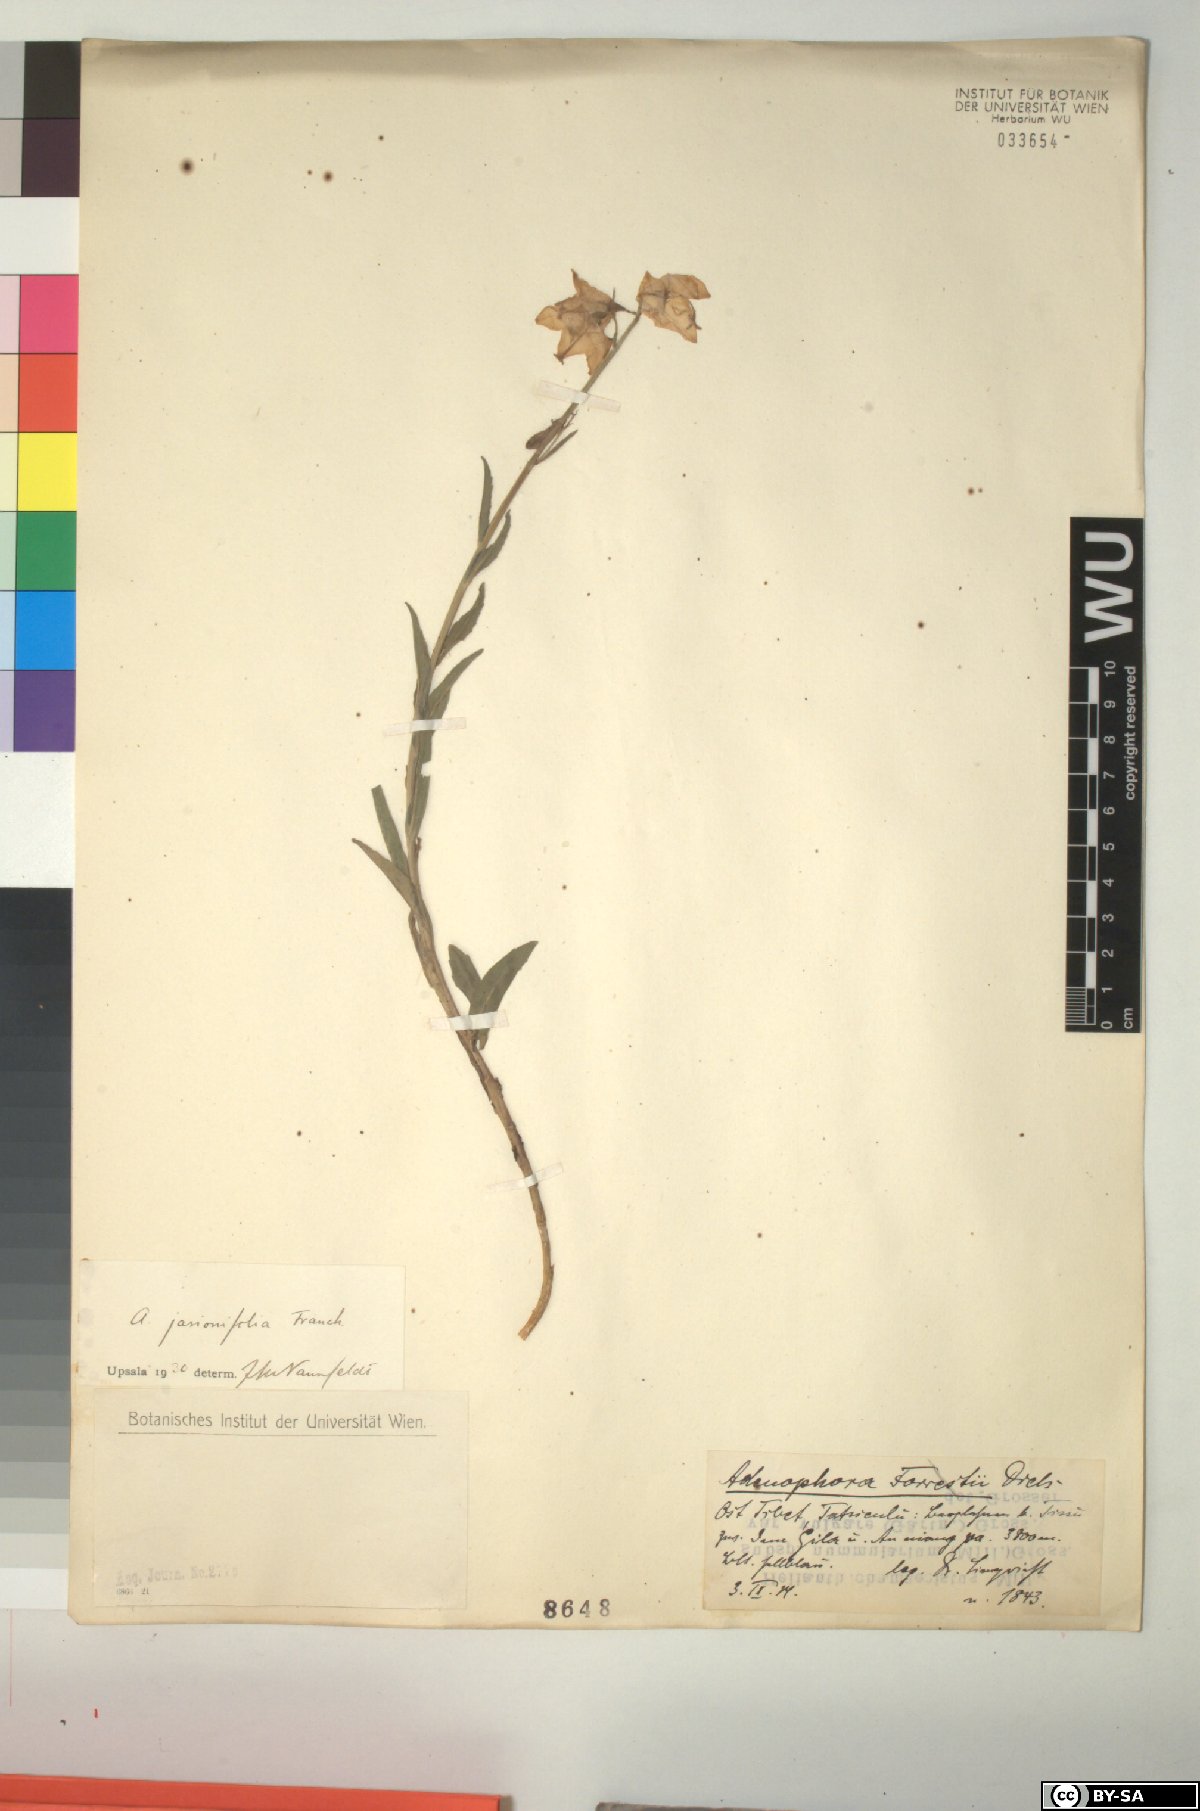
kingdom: Plantae
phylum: Tracheophyta
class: Magnoliopsida
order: Asterales
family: Campanulaceae
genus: Adenophora
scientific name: Adenophora jasionifolia
